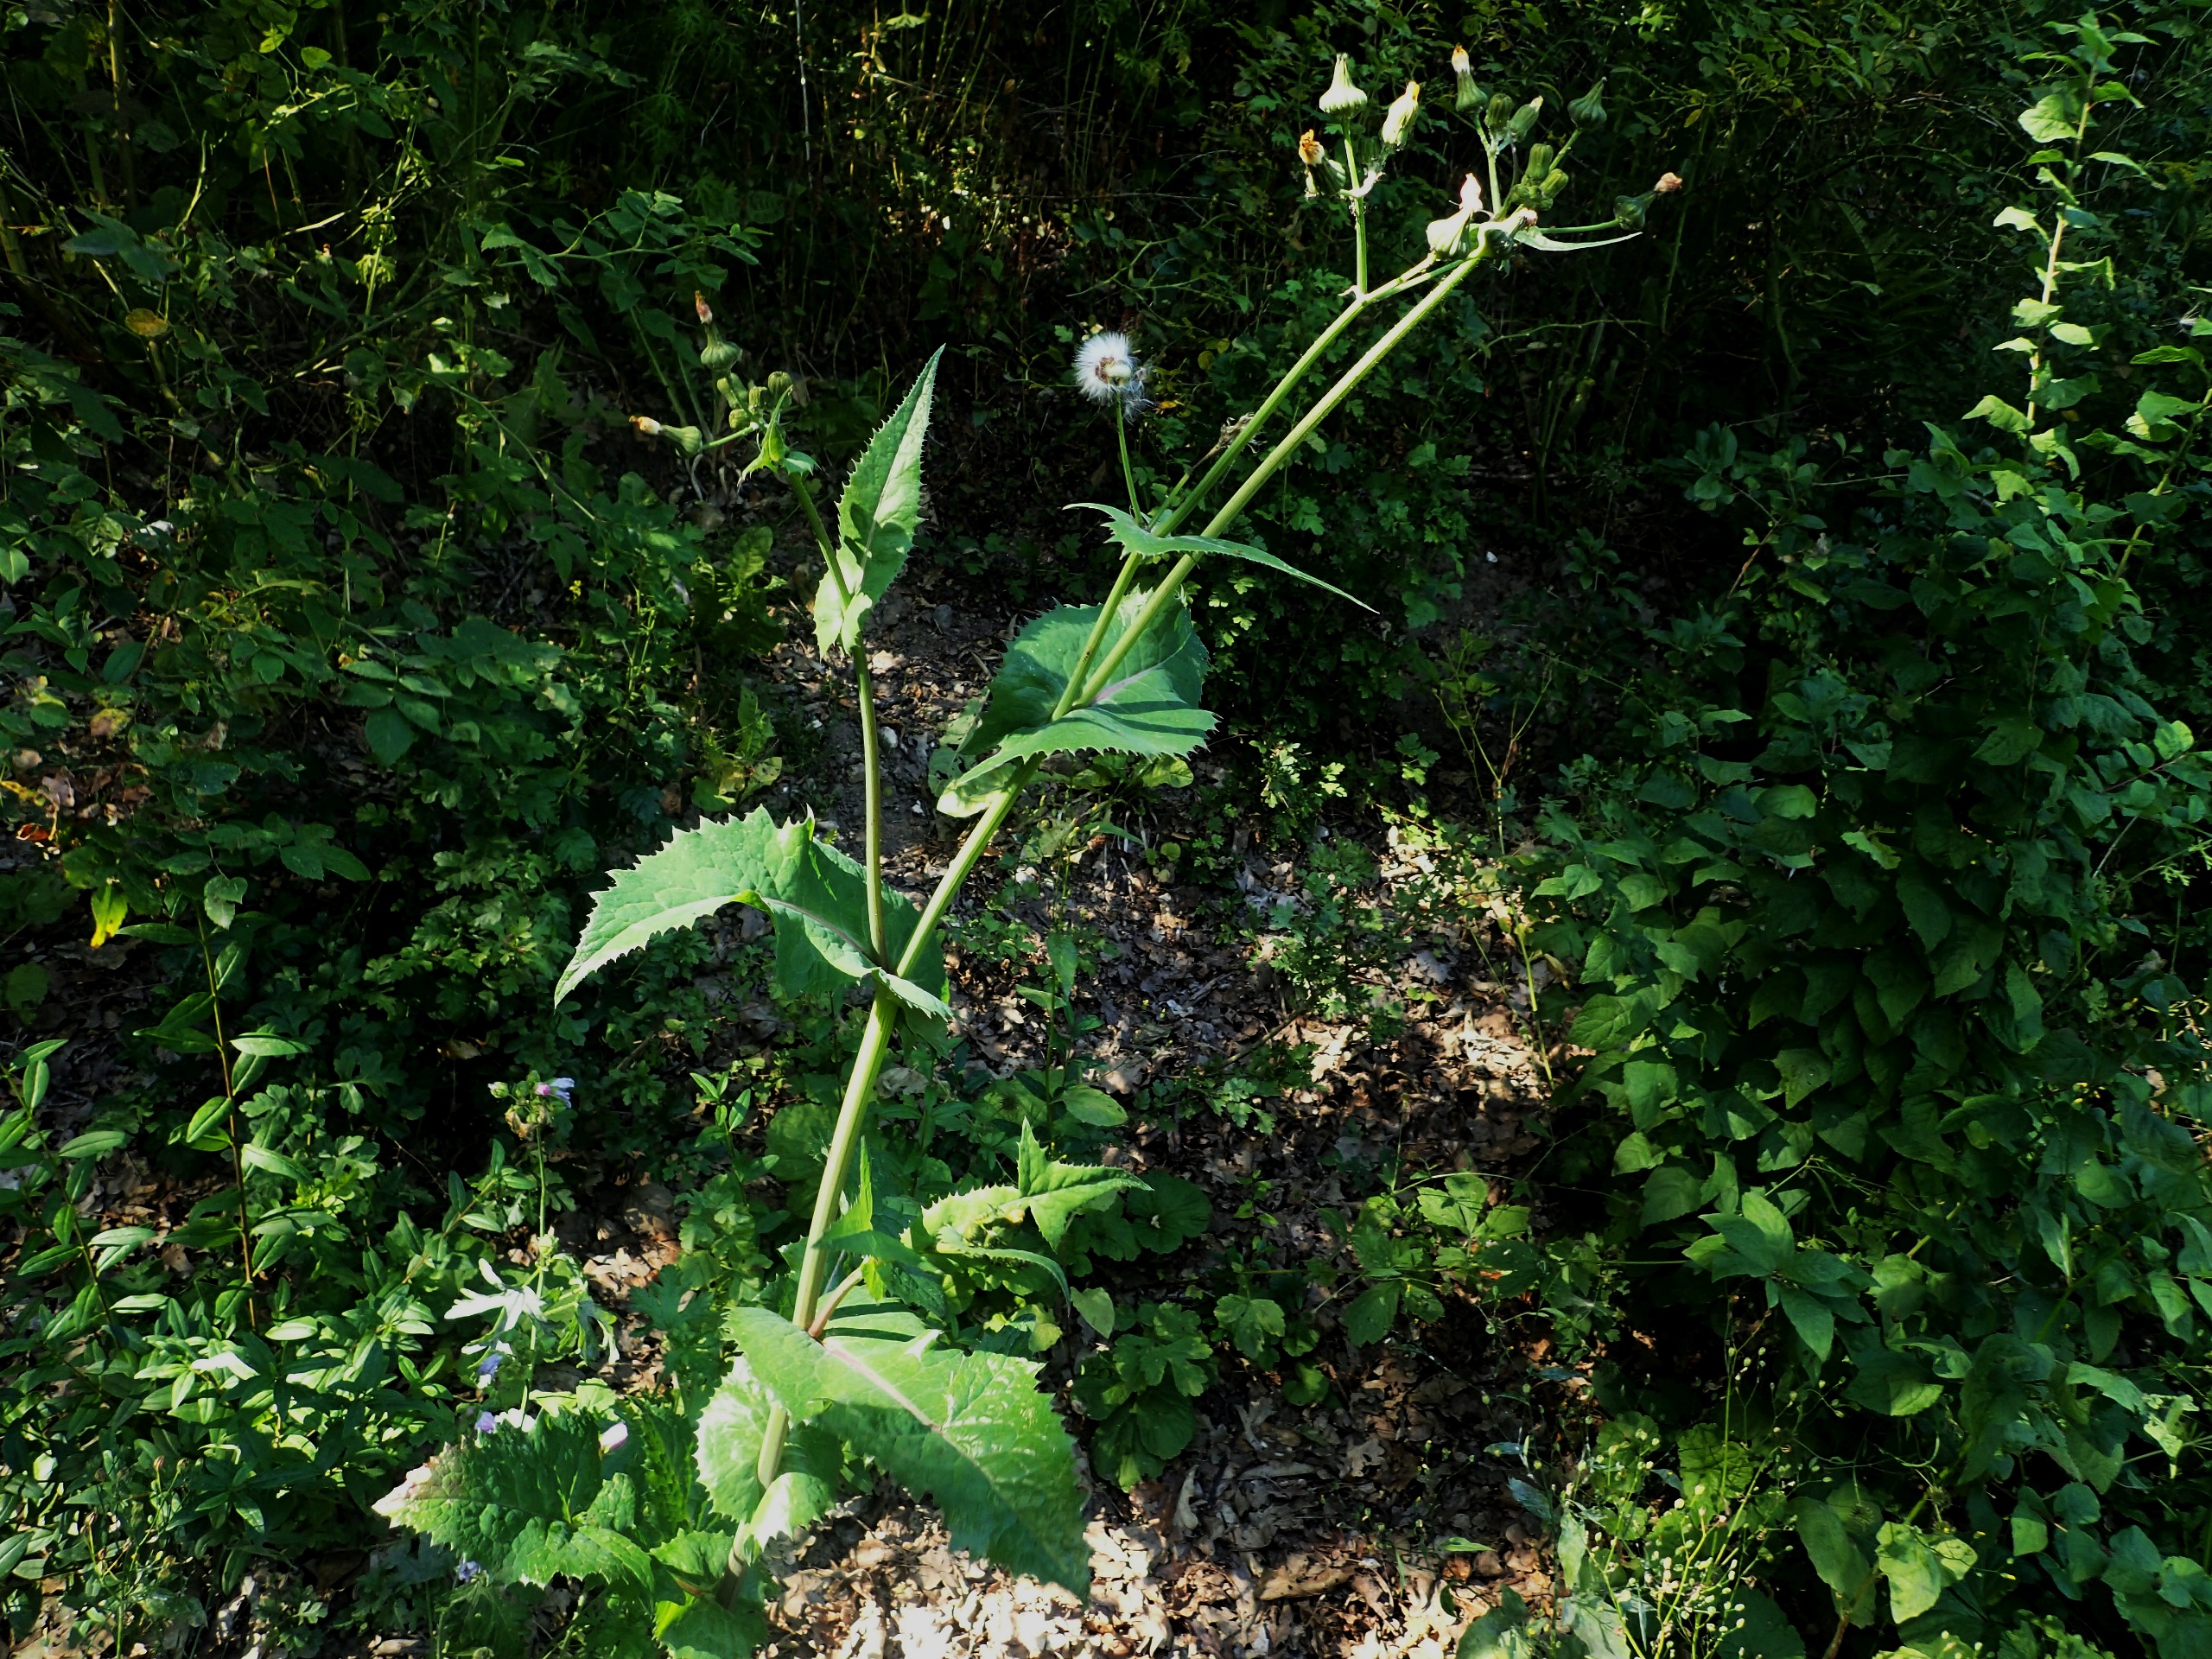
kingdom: Plantae
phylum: Tracheophyta
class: Magnoliopsida
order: Asterales
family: Asteraceae
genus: Sonchus
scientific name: Sonchus oleraceus
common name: Almindelig svinemælk
